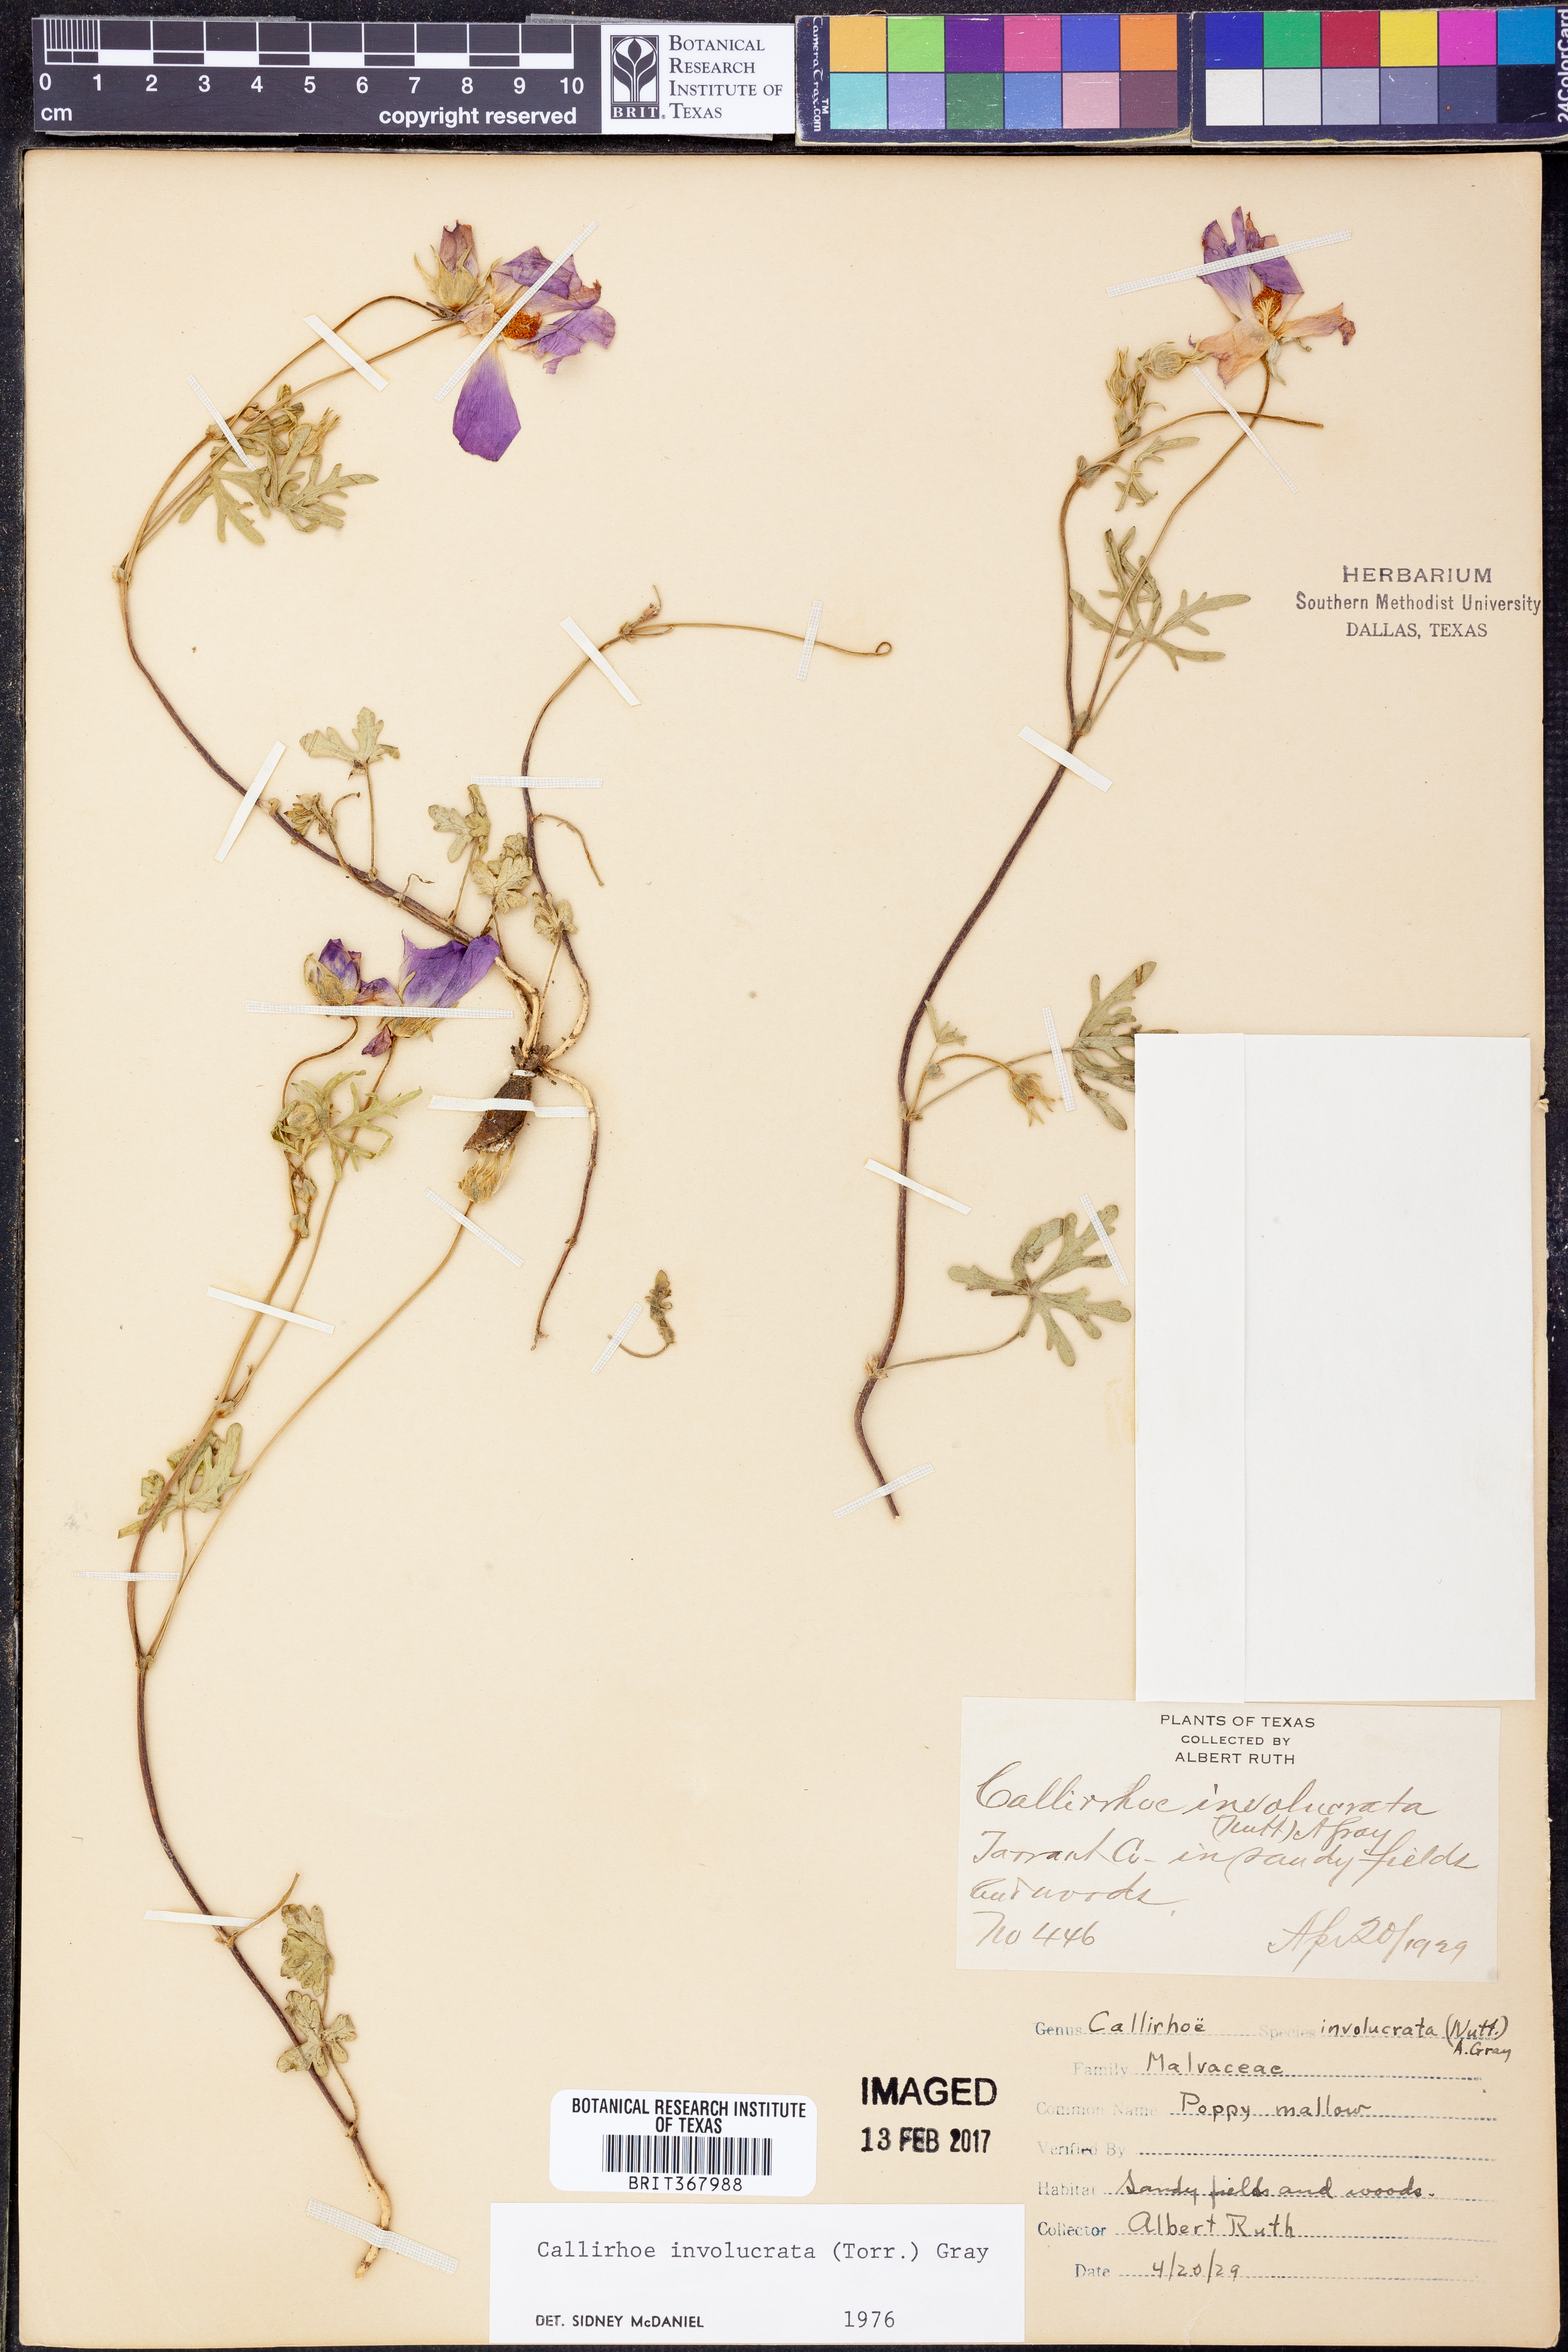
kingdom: Plantae
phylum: Tracheophyta
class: Magnoliopsida
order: Malvales
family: Malvaceae
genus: Callirhoe
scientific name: Callirhoe involucrata
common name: Purple poppy-mallow
